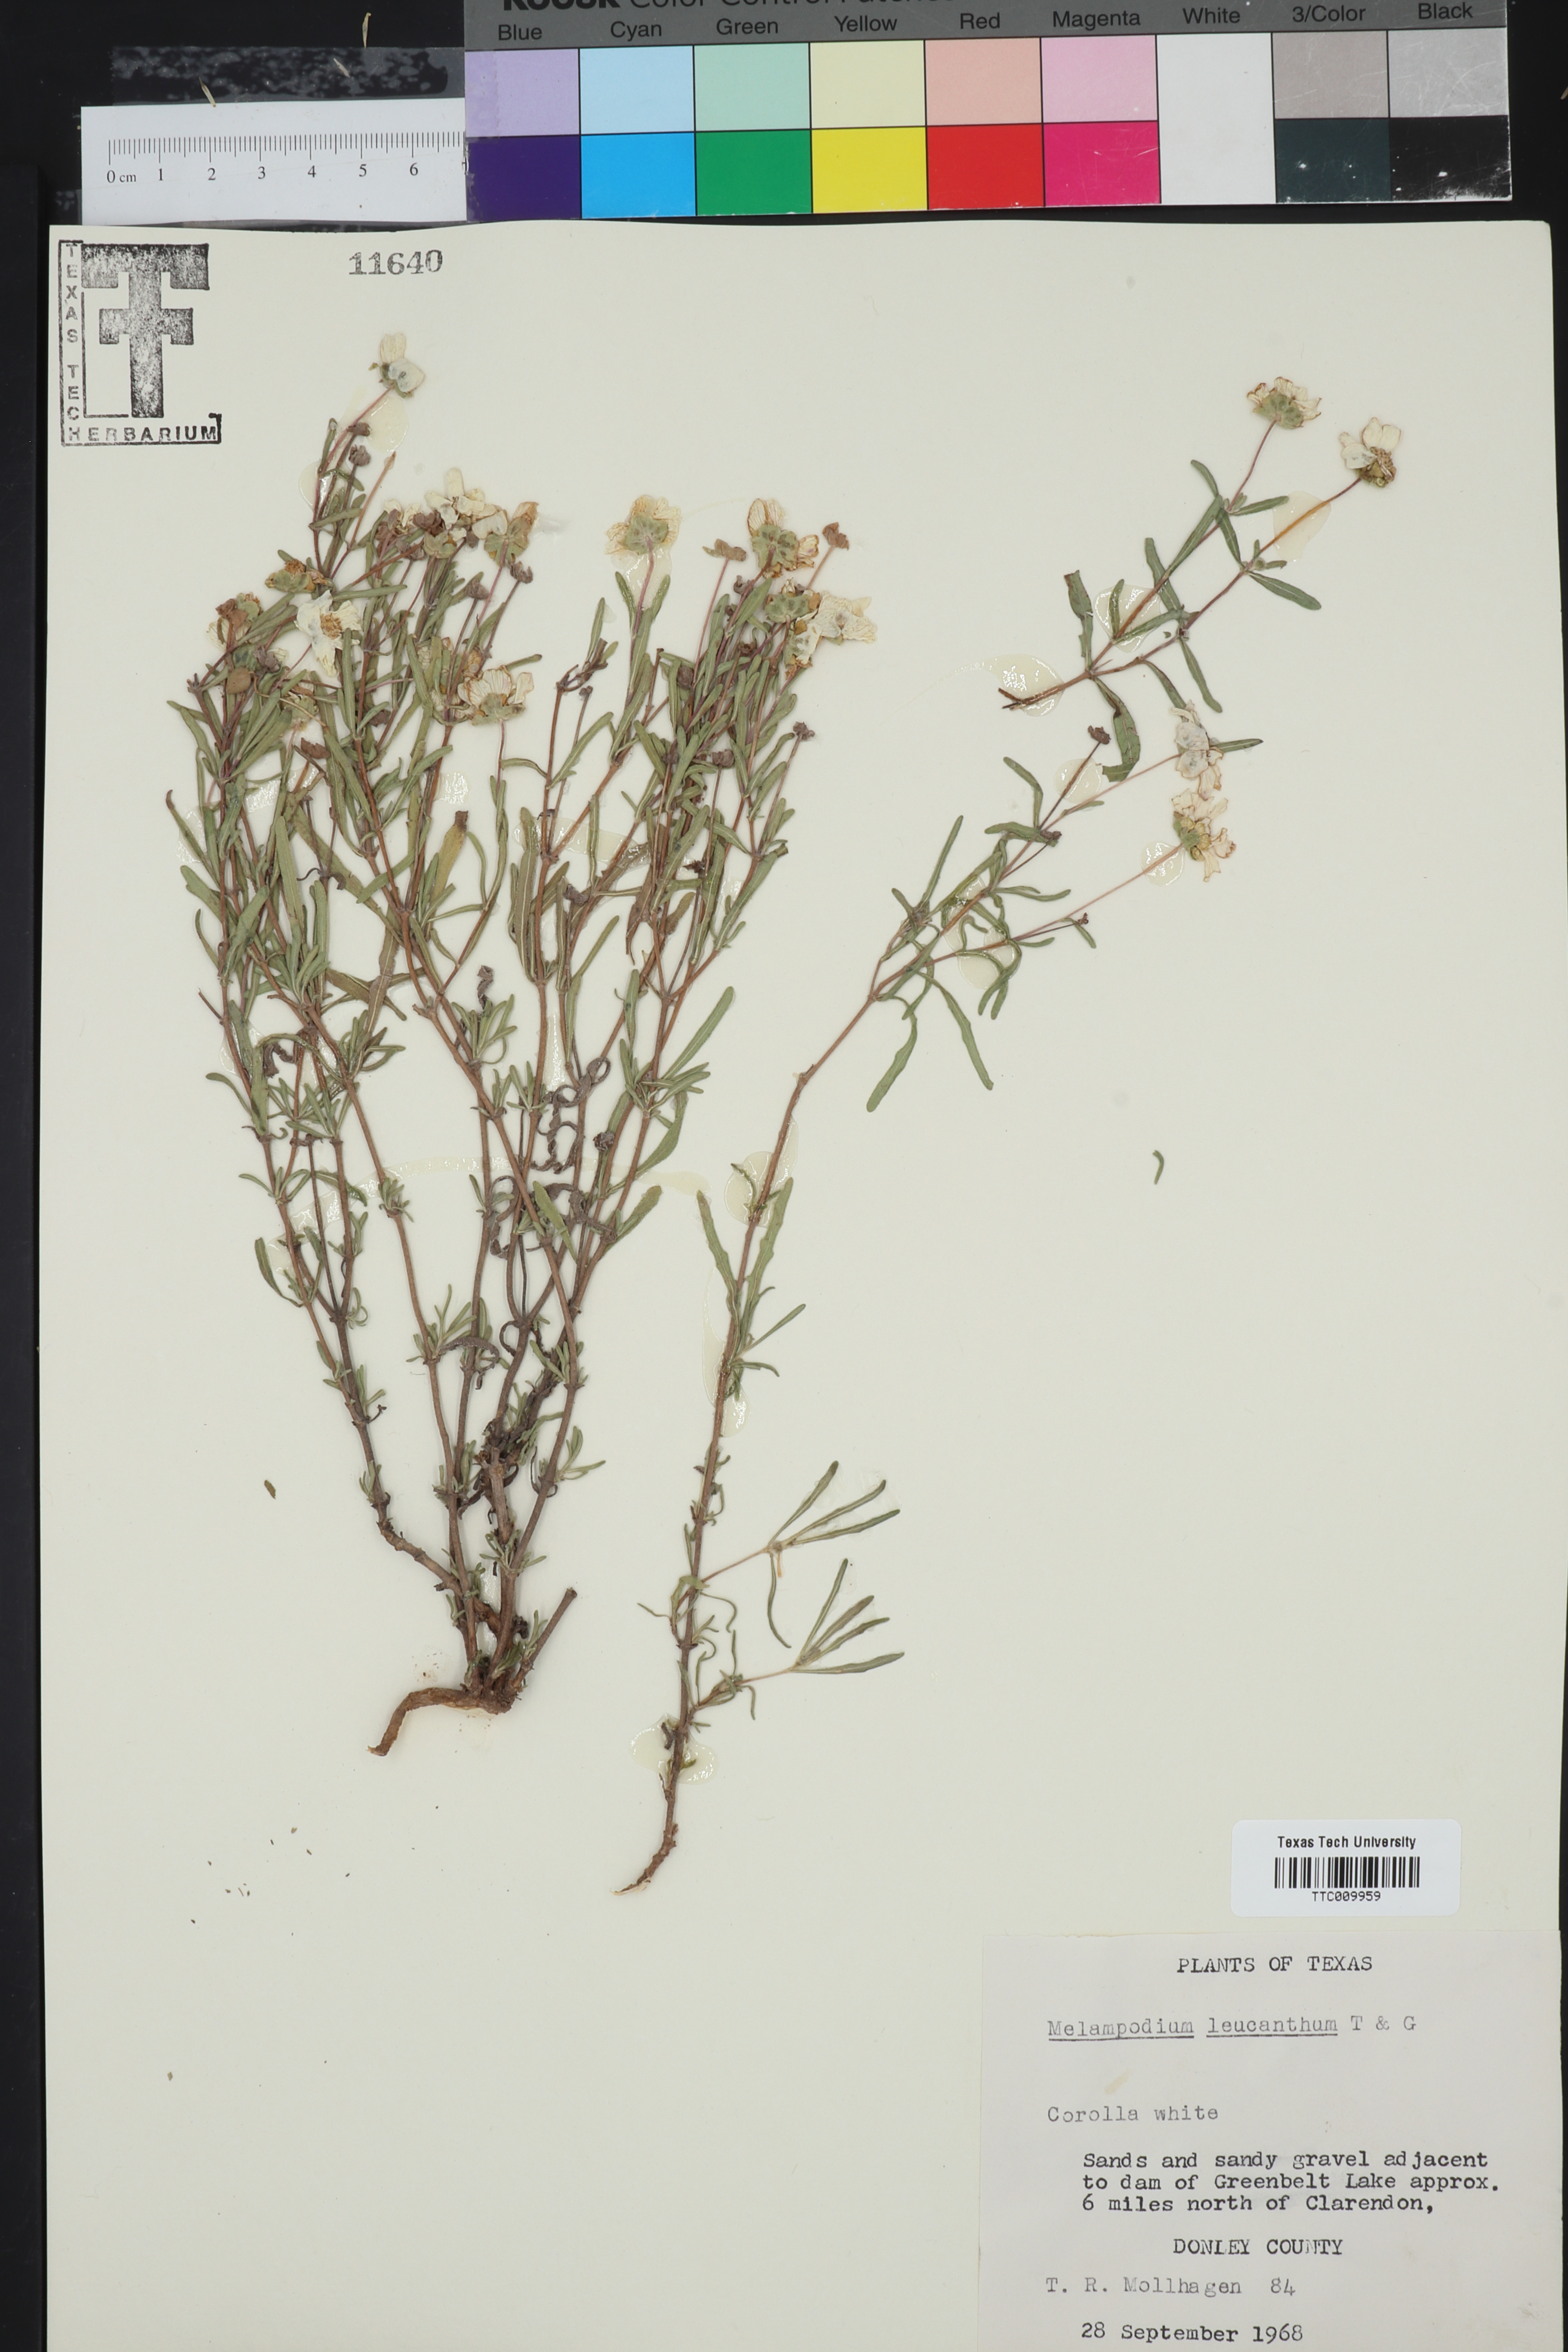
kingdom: Plantae
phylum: Tracheophyta
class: Magnoliopsida
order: Asterales
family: Asteraceae
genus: Melampodium
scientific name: Melampodium leucanthum
